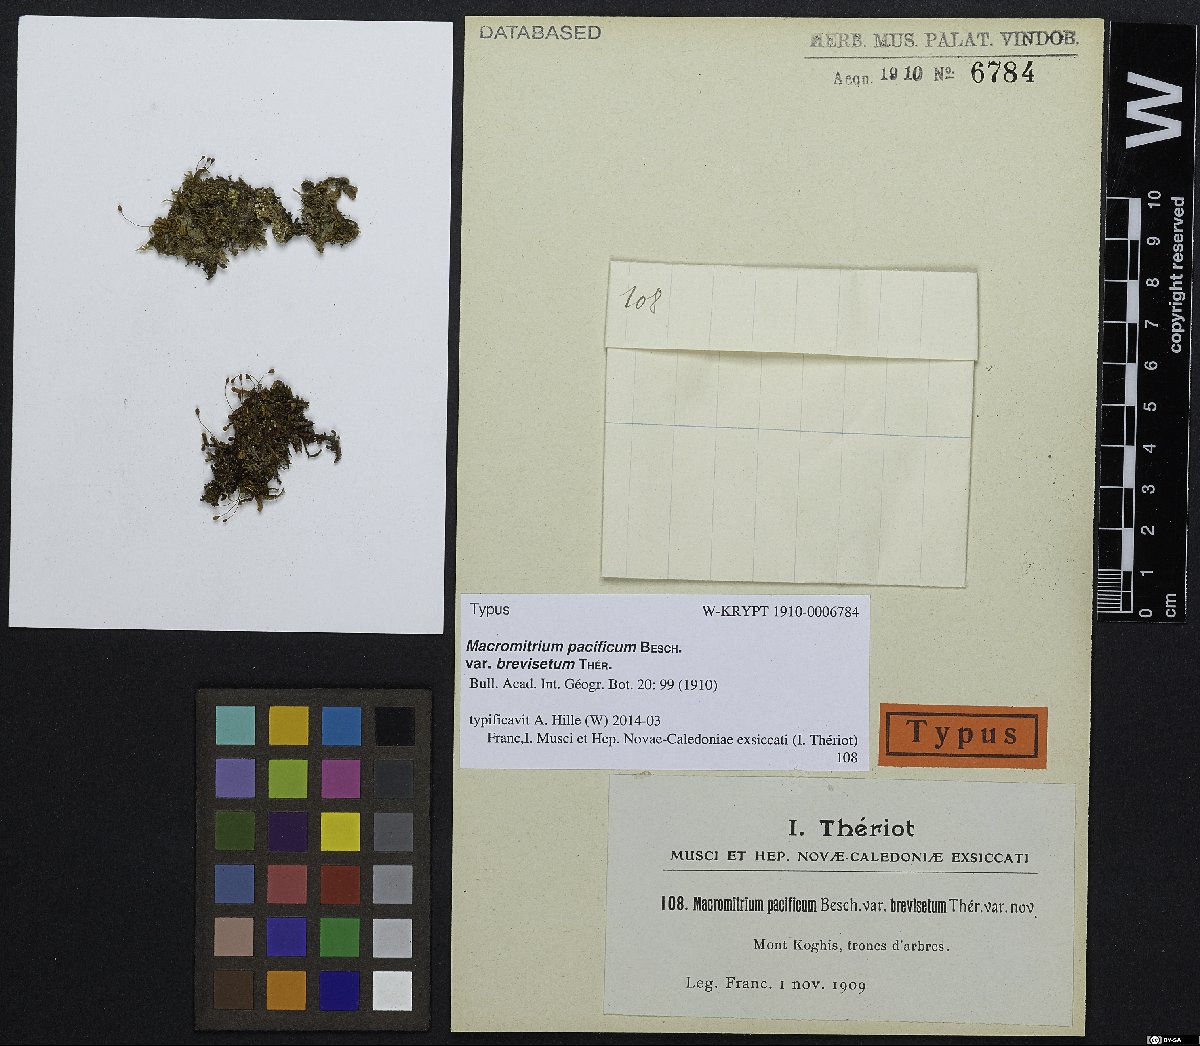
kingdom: Plantae
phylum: Bryophyta
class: Bryopsida
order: Orthotrichales
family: Orthotrichaceae
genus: Macromitrium
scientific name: Macromitrium microstomum
